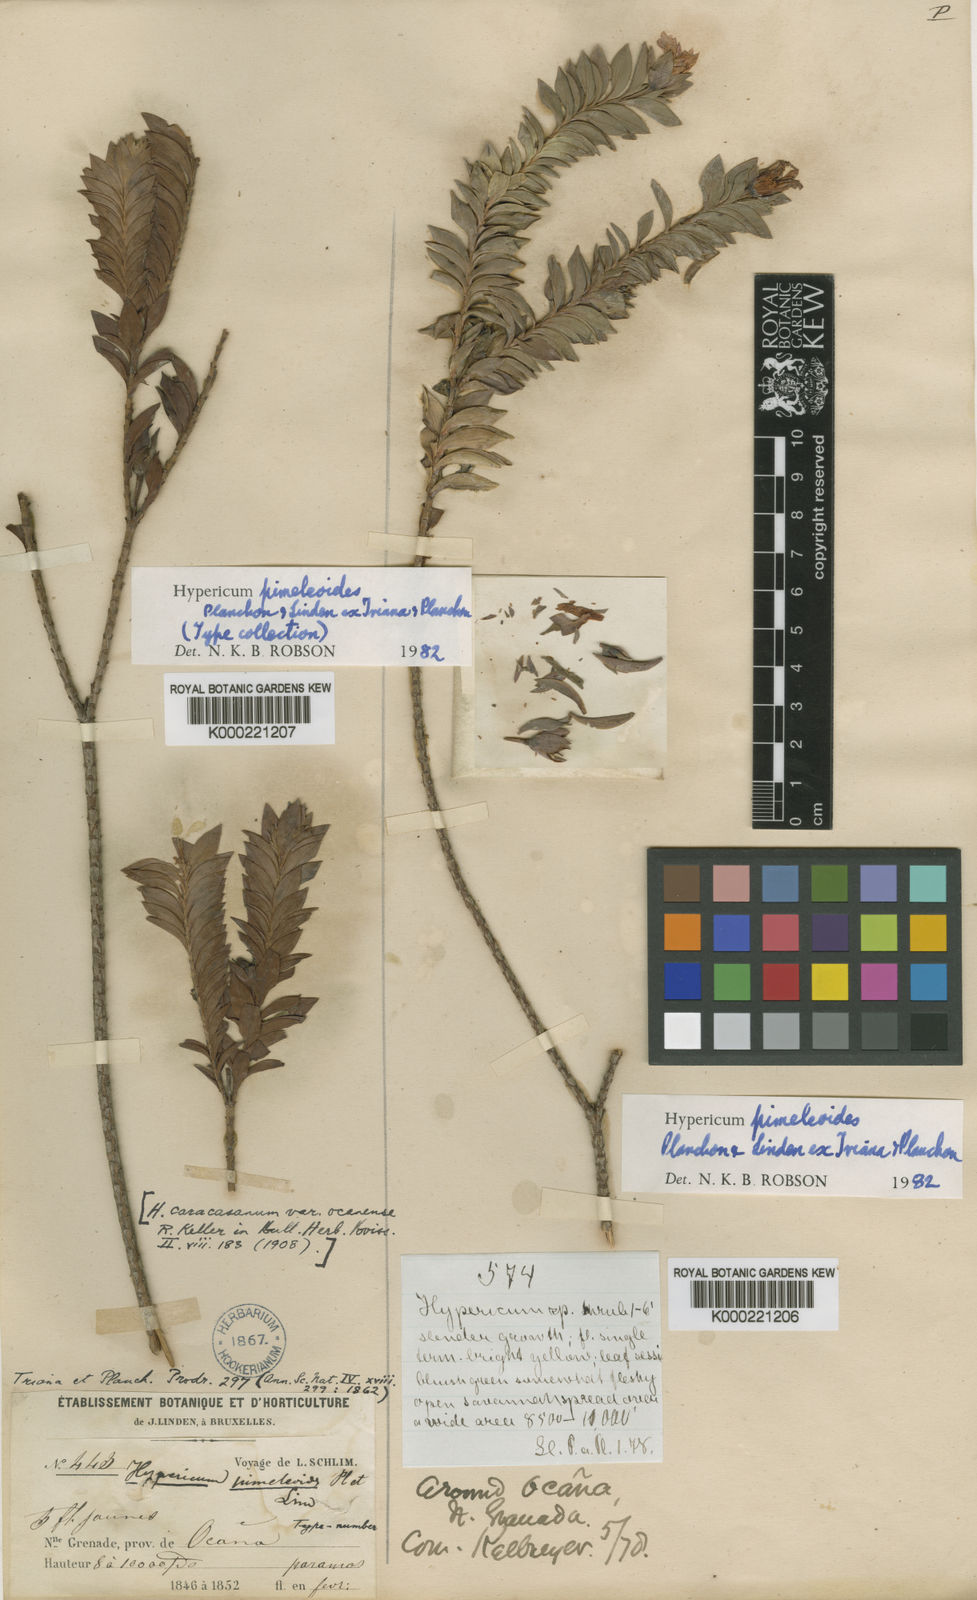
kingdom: Plantae
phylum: Tracheophyta
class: Magnoliopsida
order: Malpighiales
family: Hypericaceae
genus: Hypericum
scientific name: Hypericum pimeleoides
